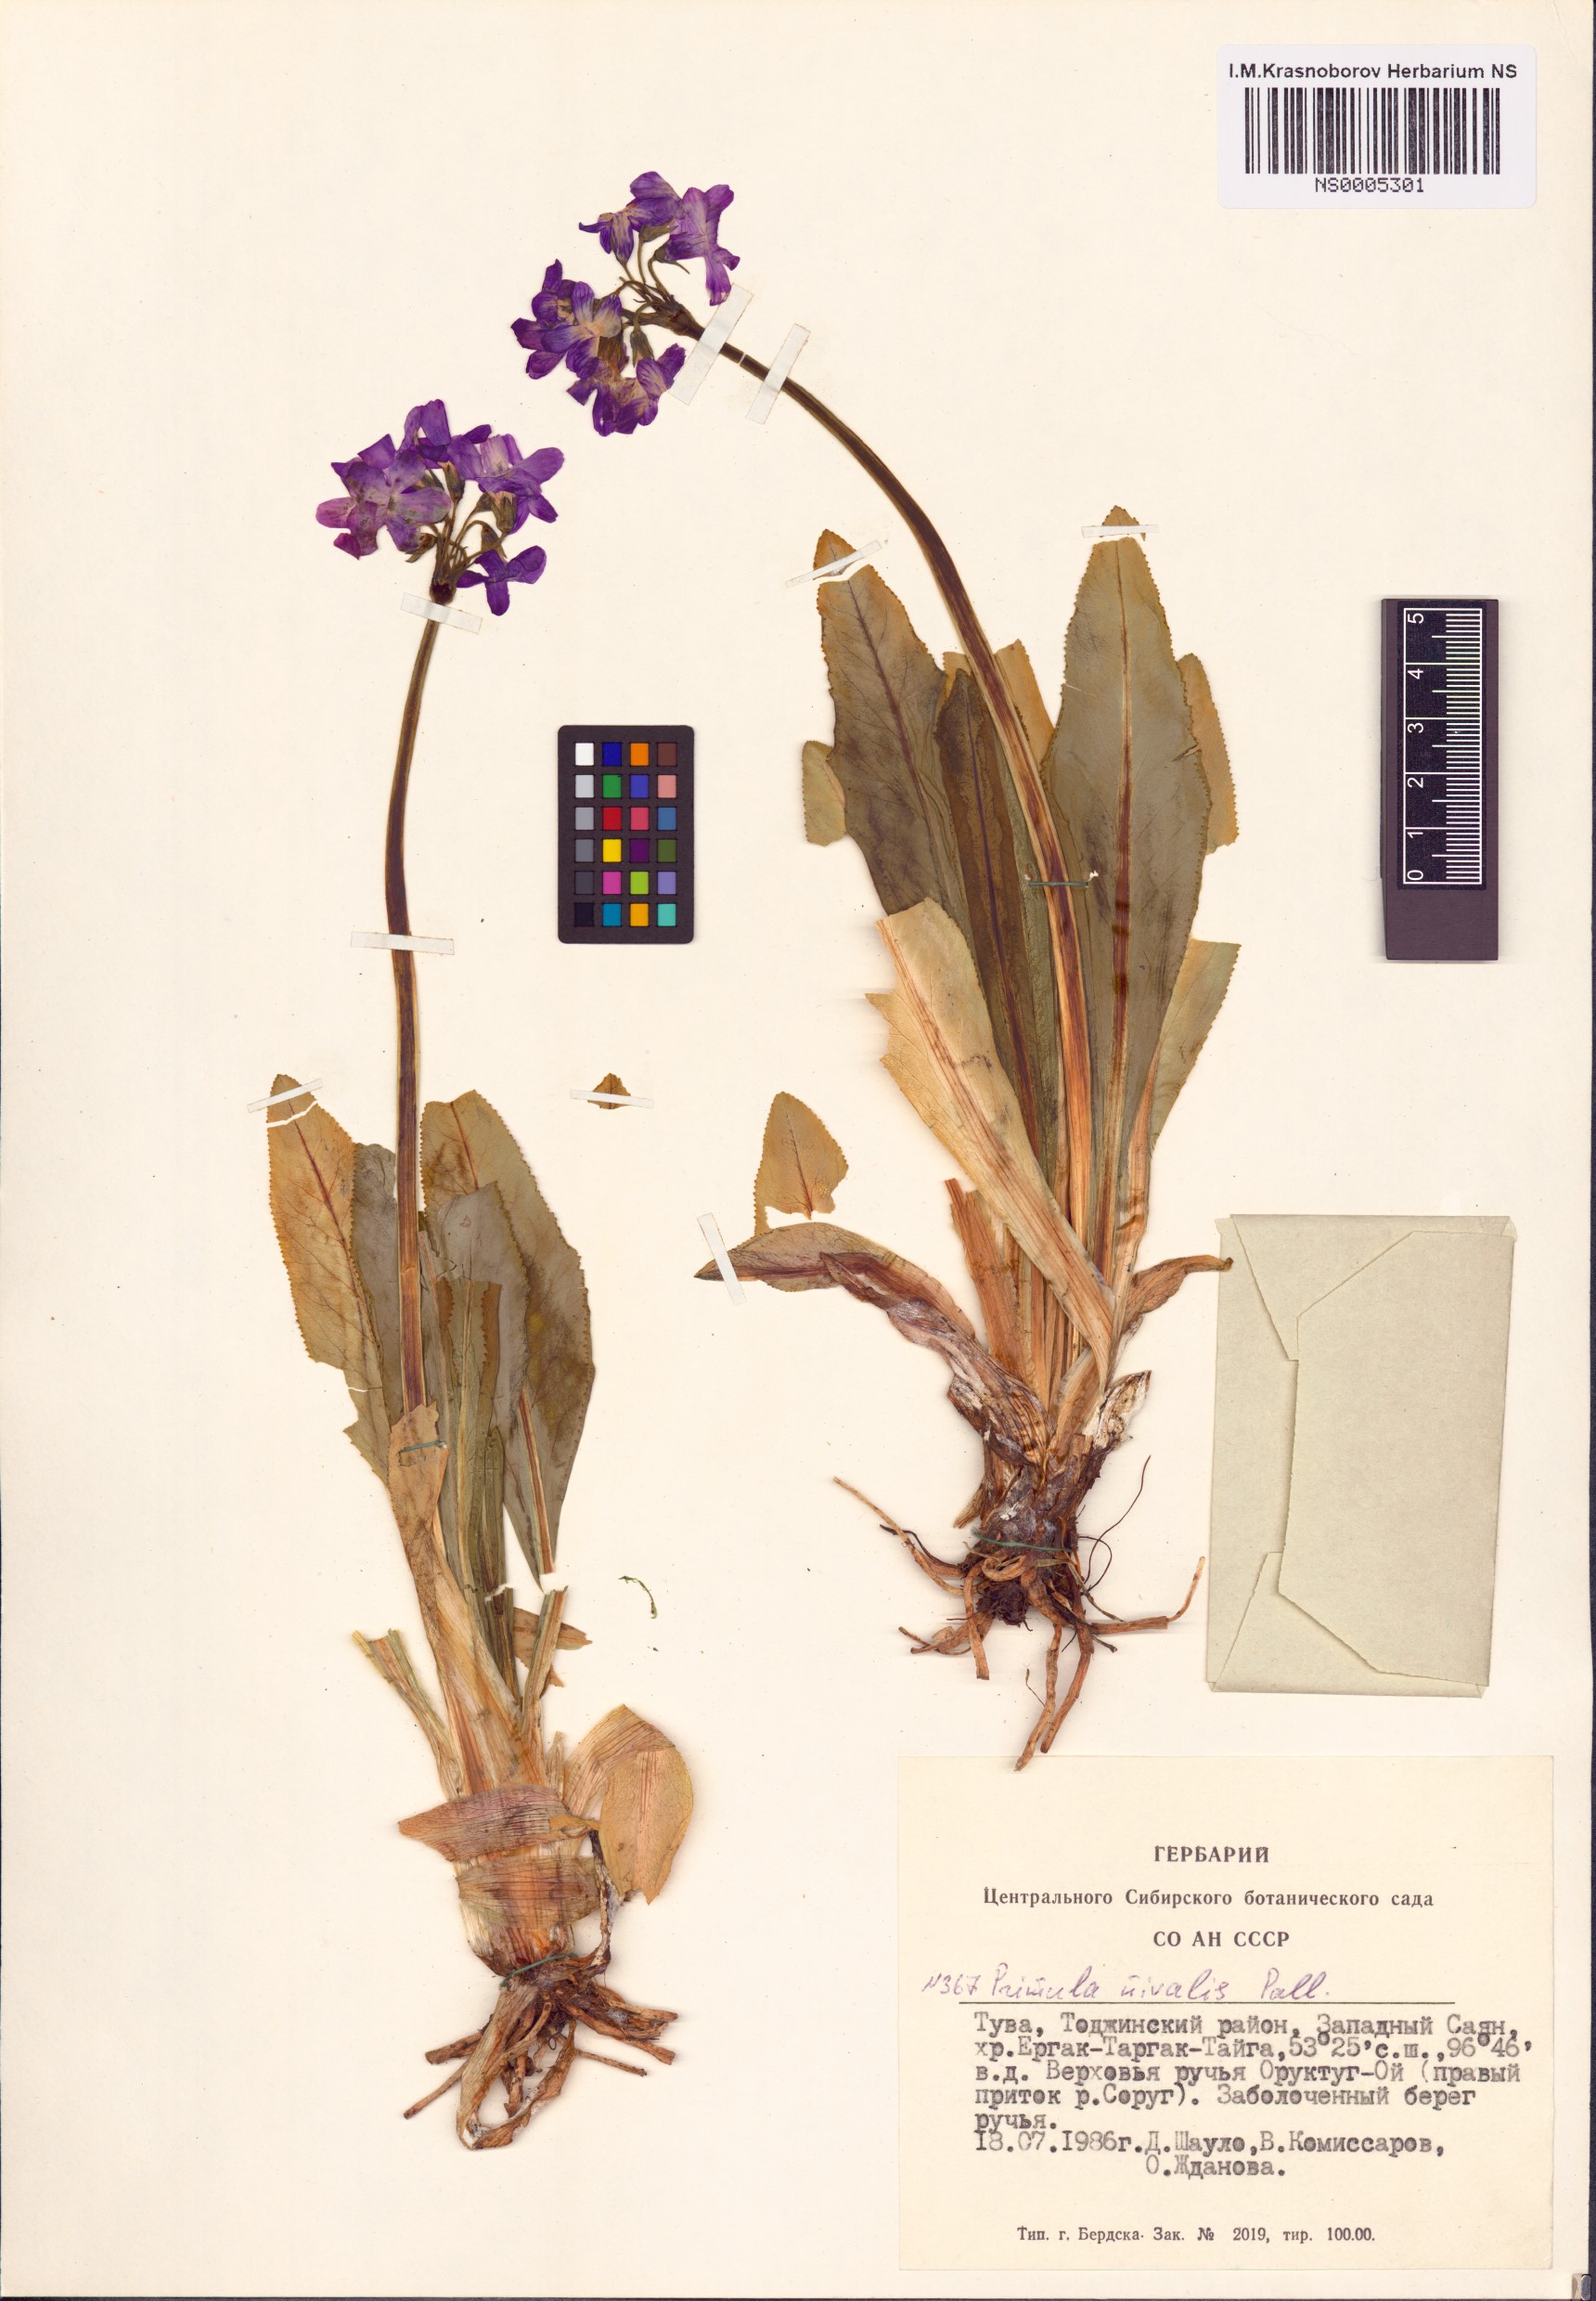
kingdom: Plantae
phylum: Tracheophyta
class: Magnoliopsida
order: Ericales
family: Primulaceae
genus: Primula
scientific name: Primula nivalis
